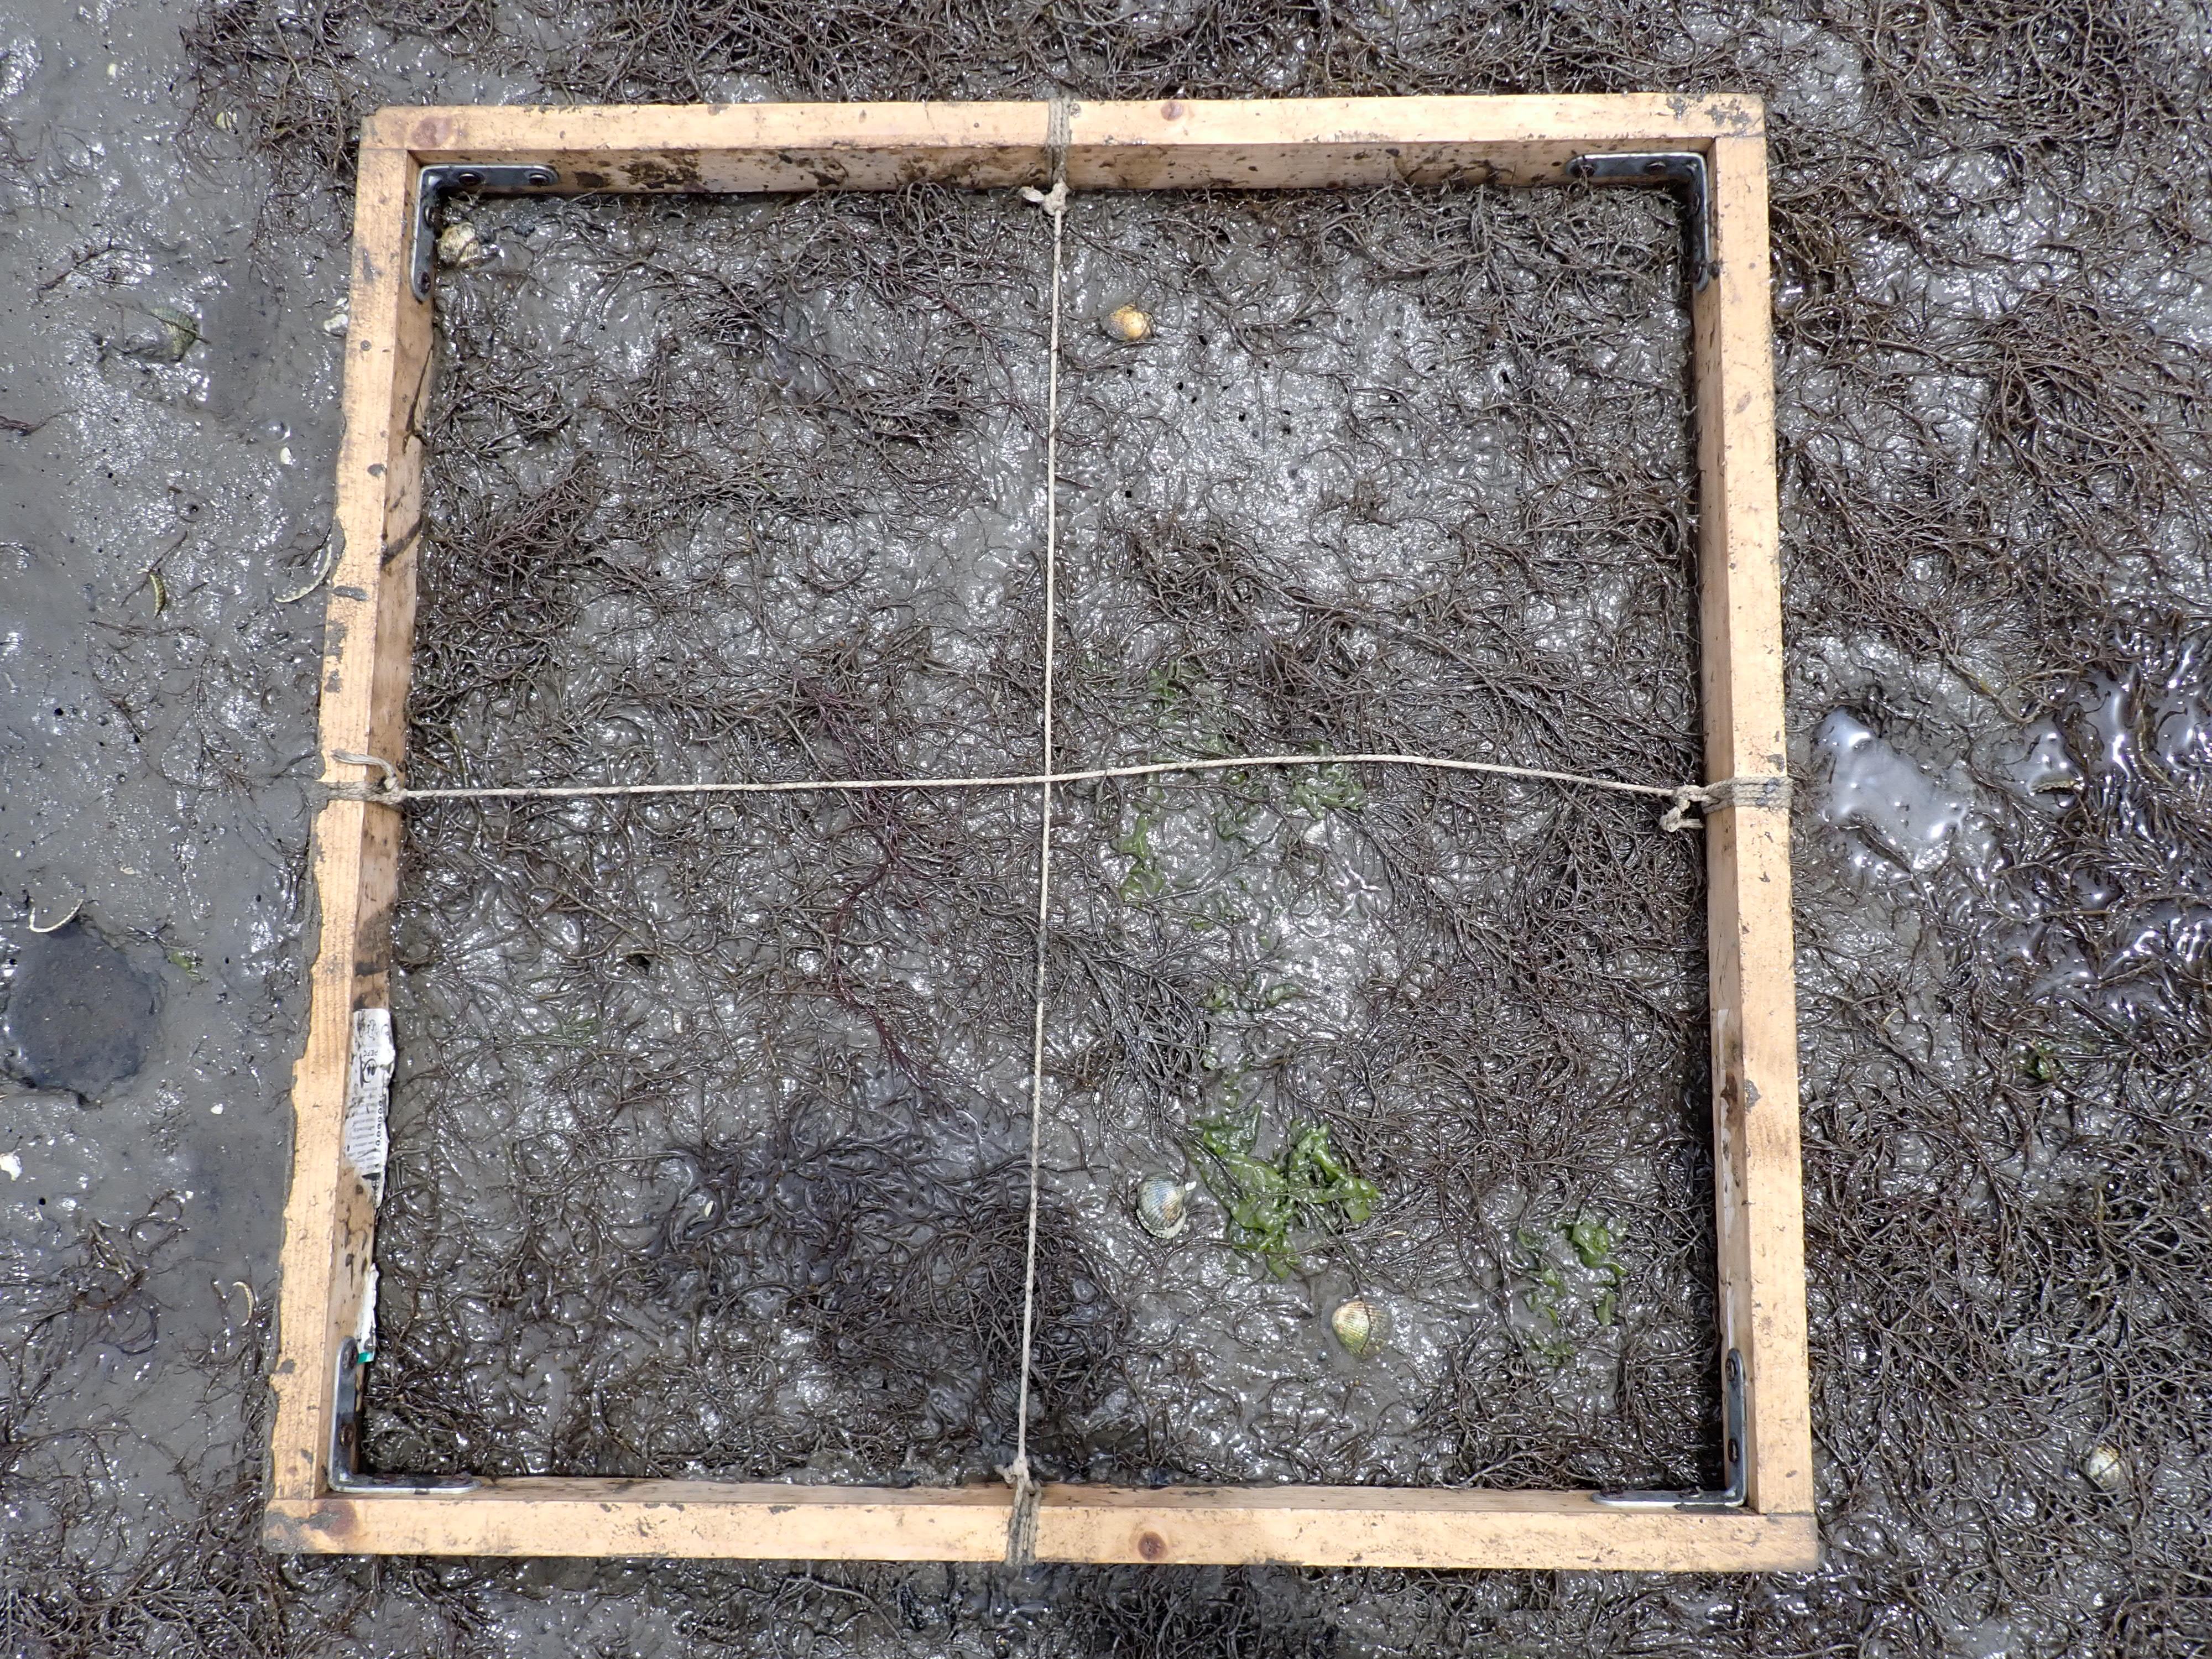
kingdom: Plantae
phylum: Chlorophyta
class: Ulvophyceae
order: Ulvales
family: Ulvaceae
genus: Ulva
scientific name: Ulva
